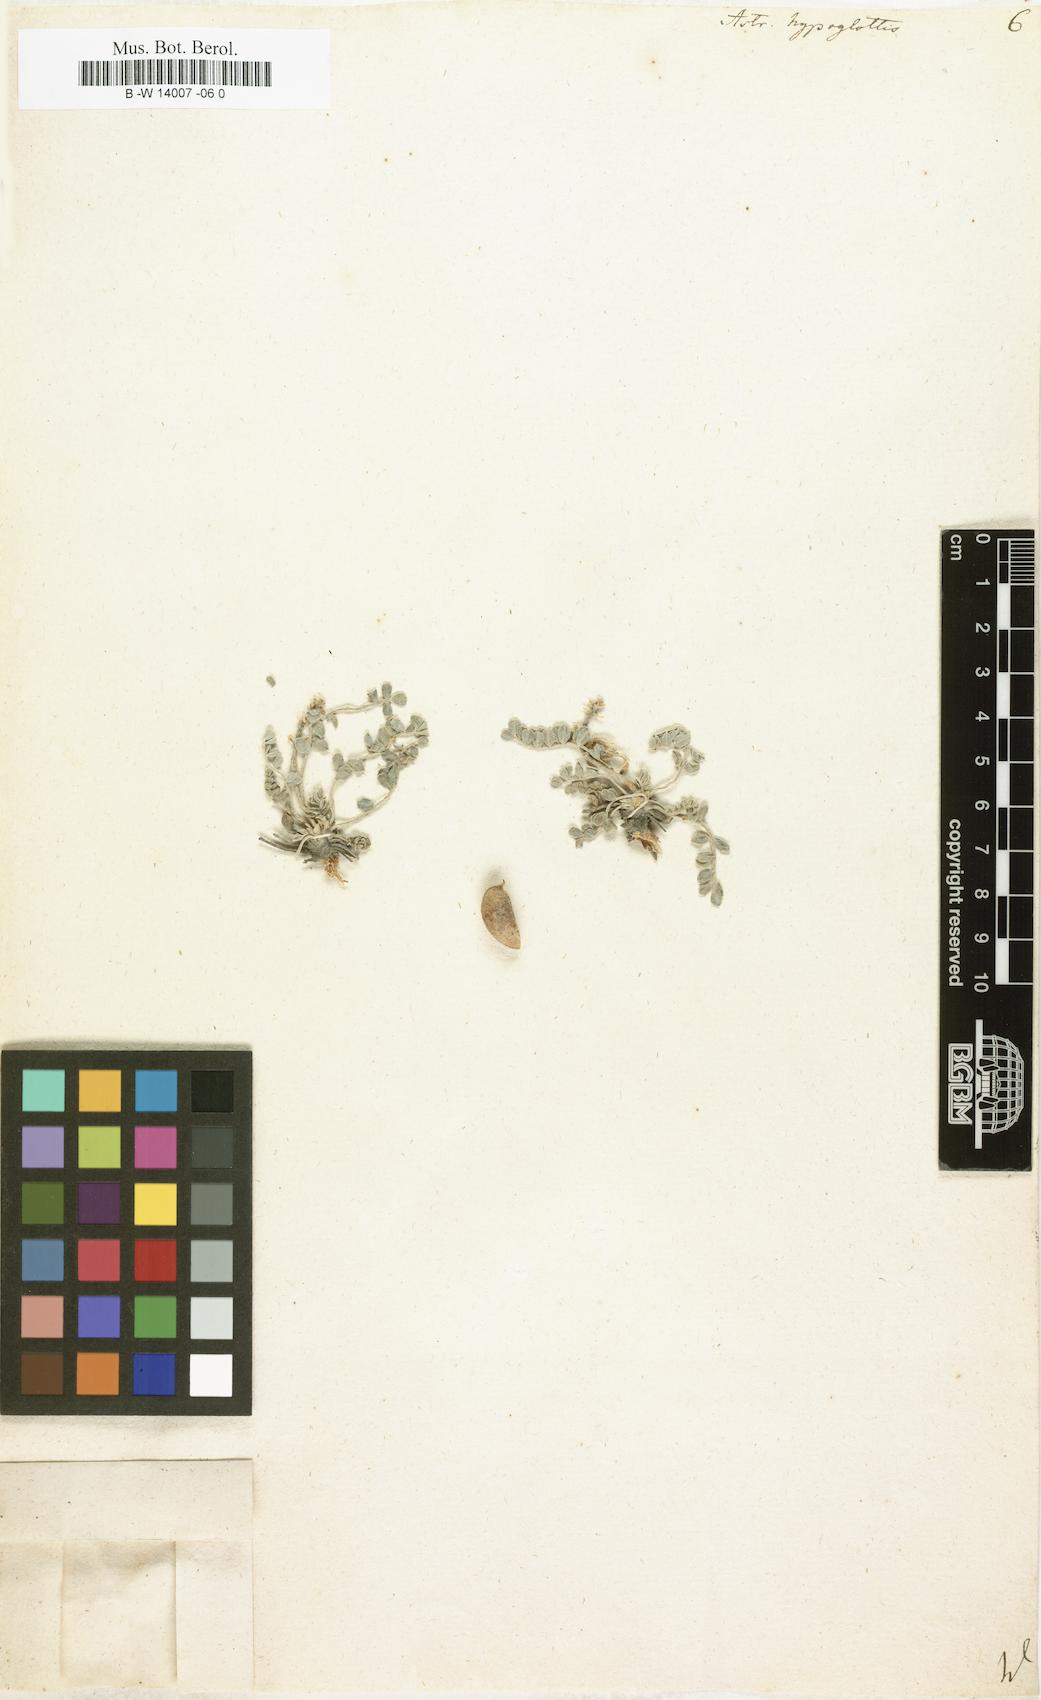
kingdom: Plantae
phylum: Tracheophyta
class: Magnoliopsida
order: Fabales
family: Fabaceae
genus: Astragalus
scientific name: Astragalus hypoglottis
